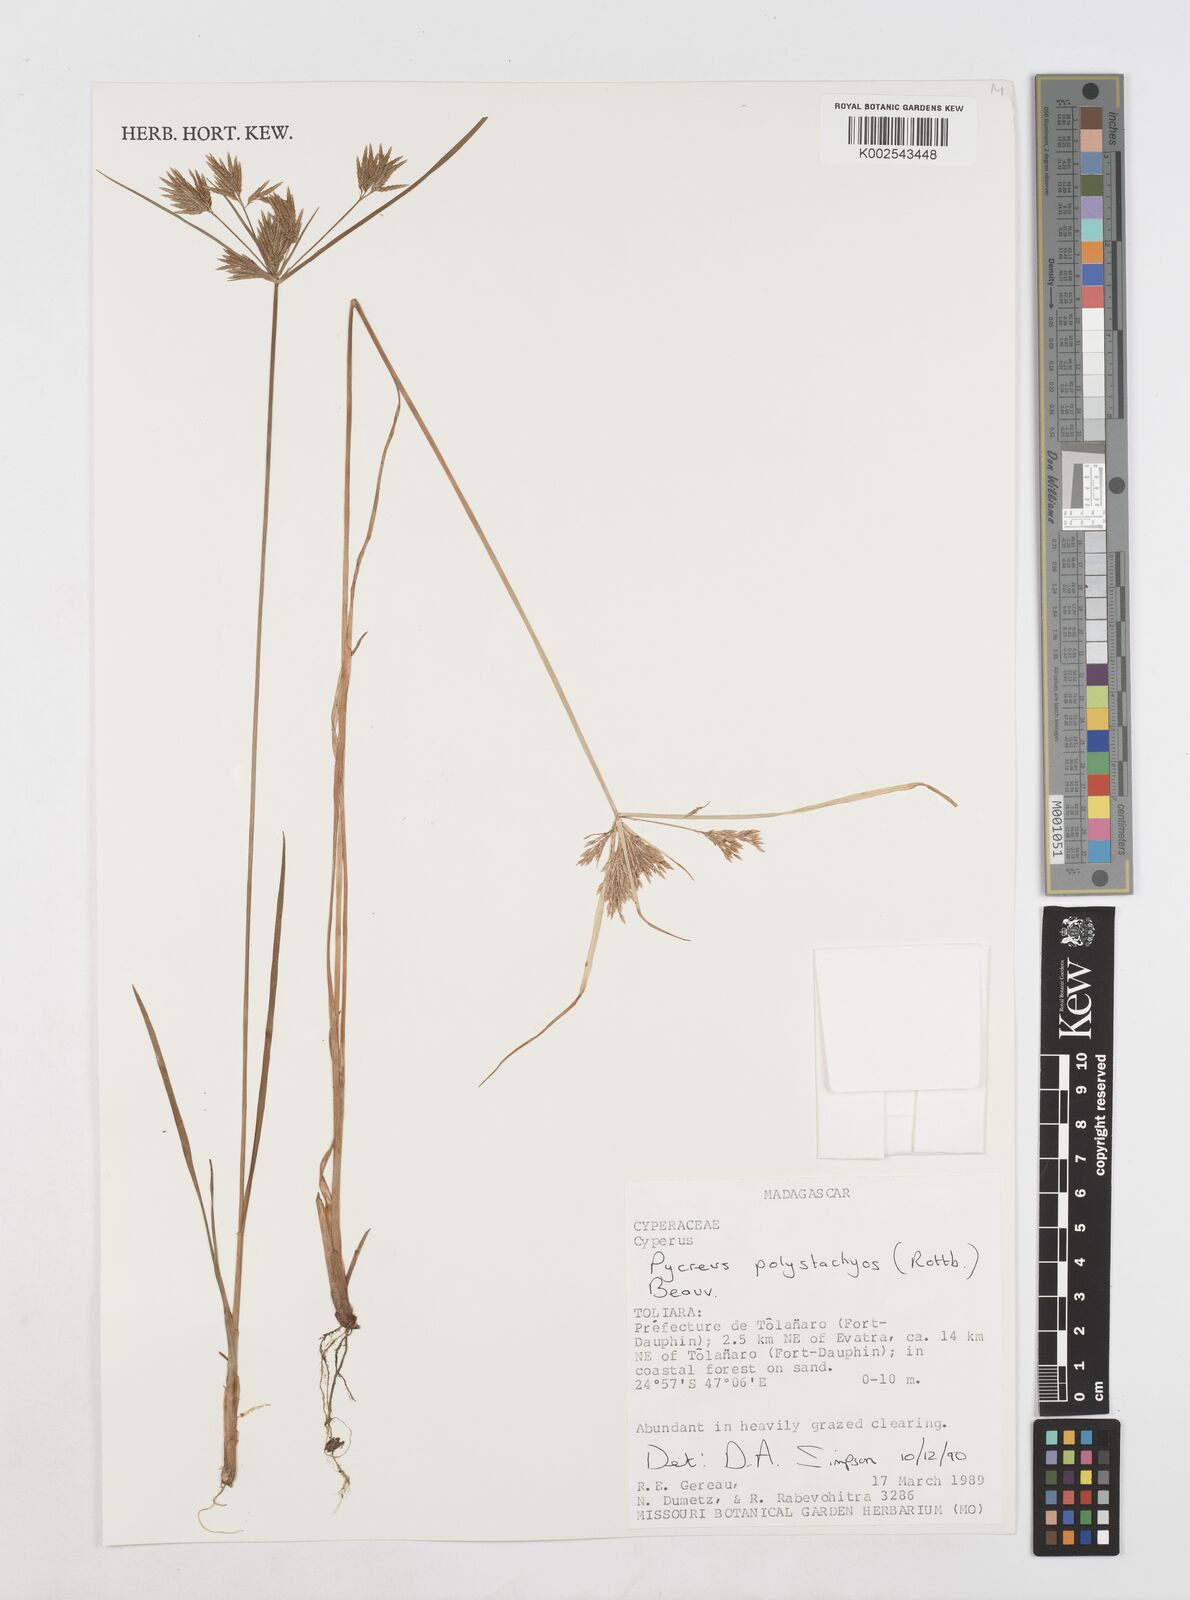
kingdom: Plantae
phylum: Tracheophyta
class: Liliopsida
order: Poales
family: Cyperaceae
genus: Cyperus
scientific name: Cyperus polystachyos
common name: Bunchy flat sedge
